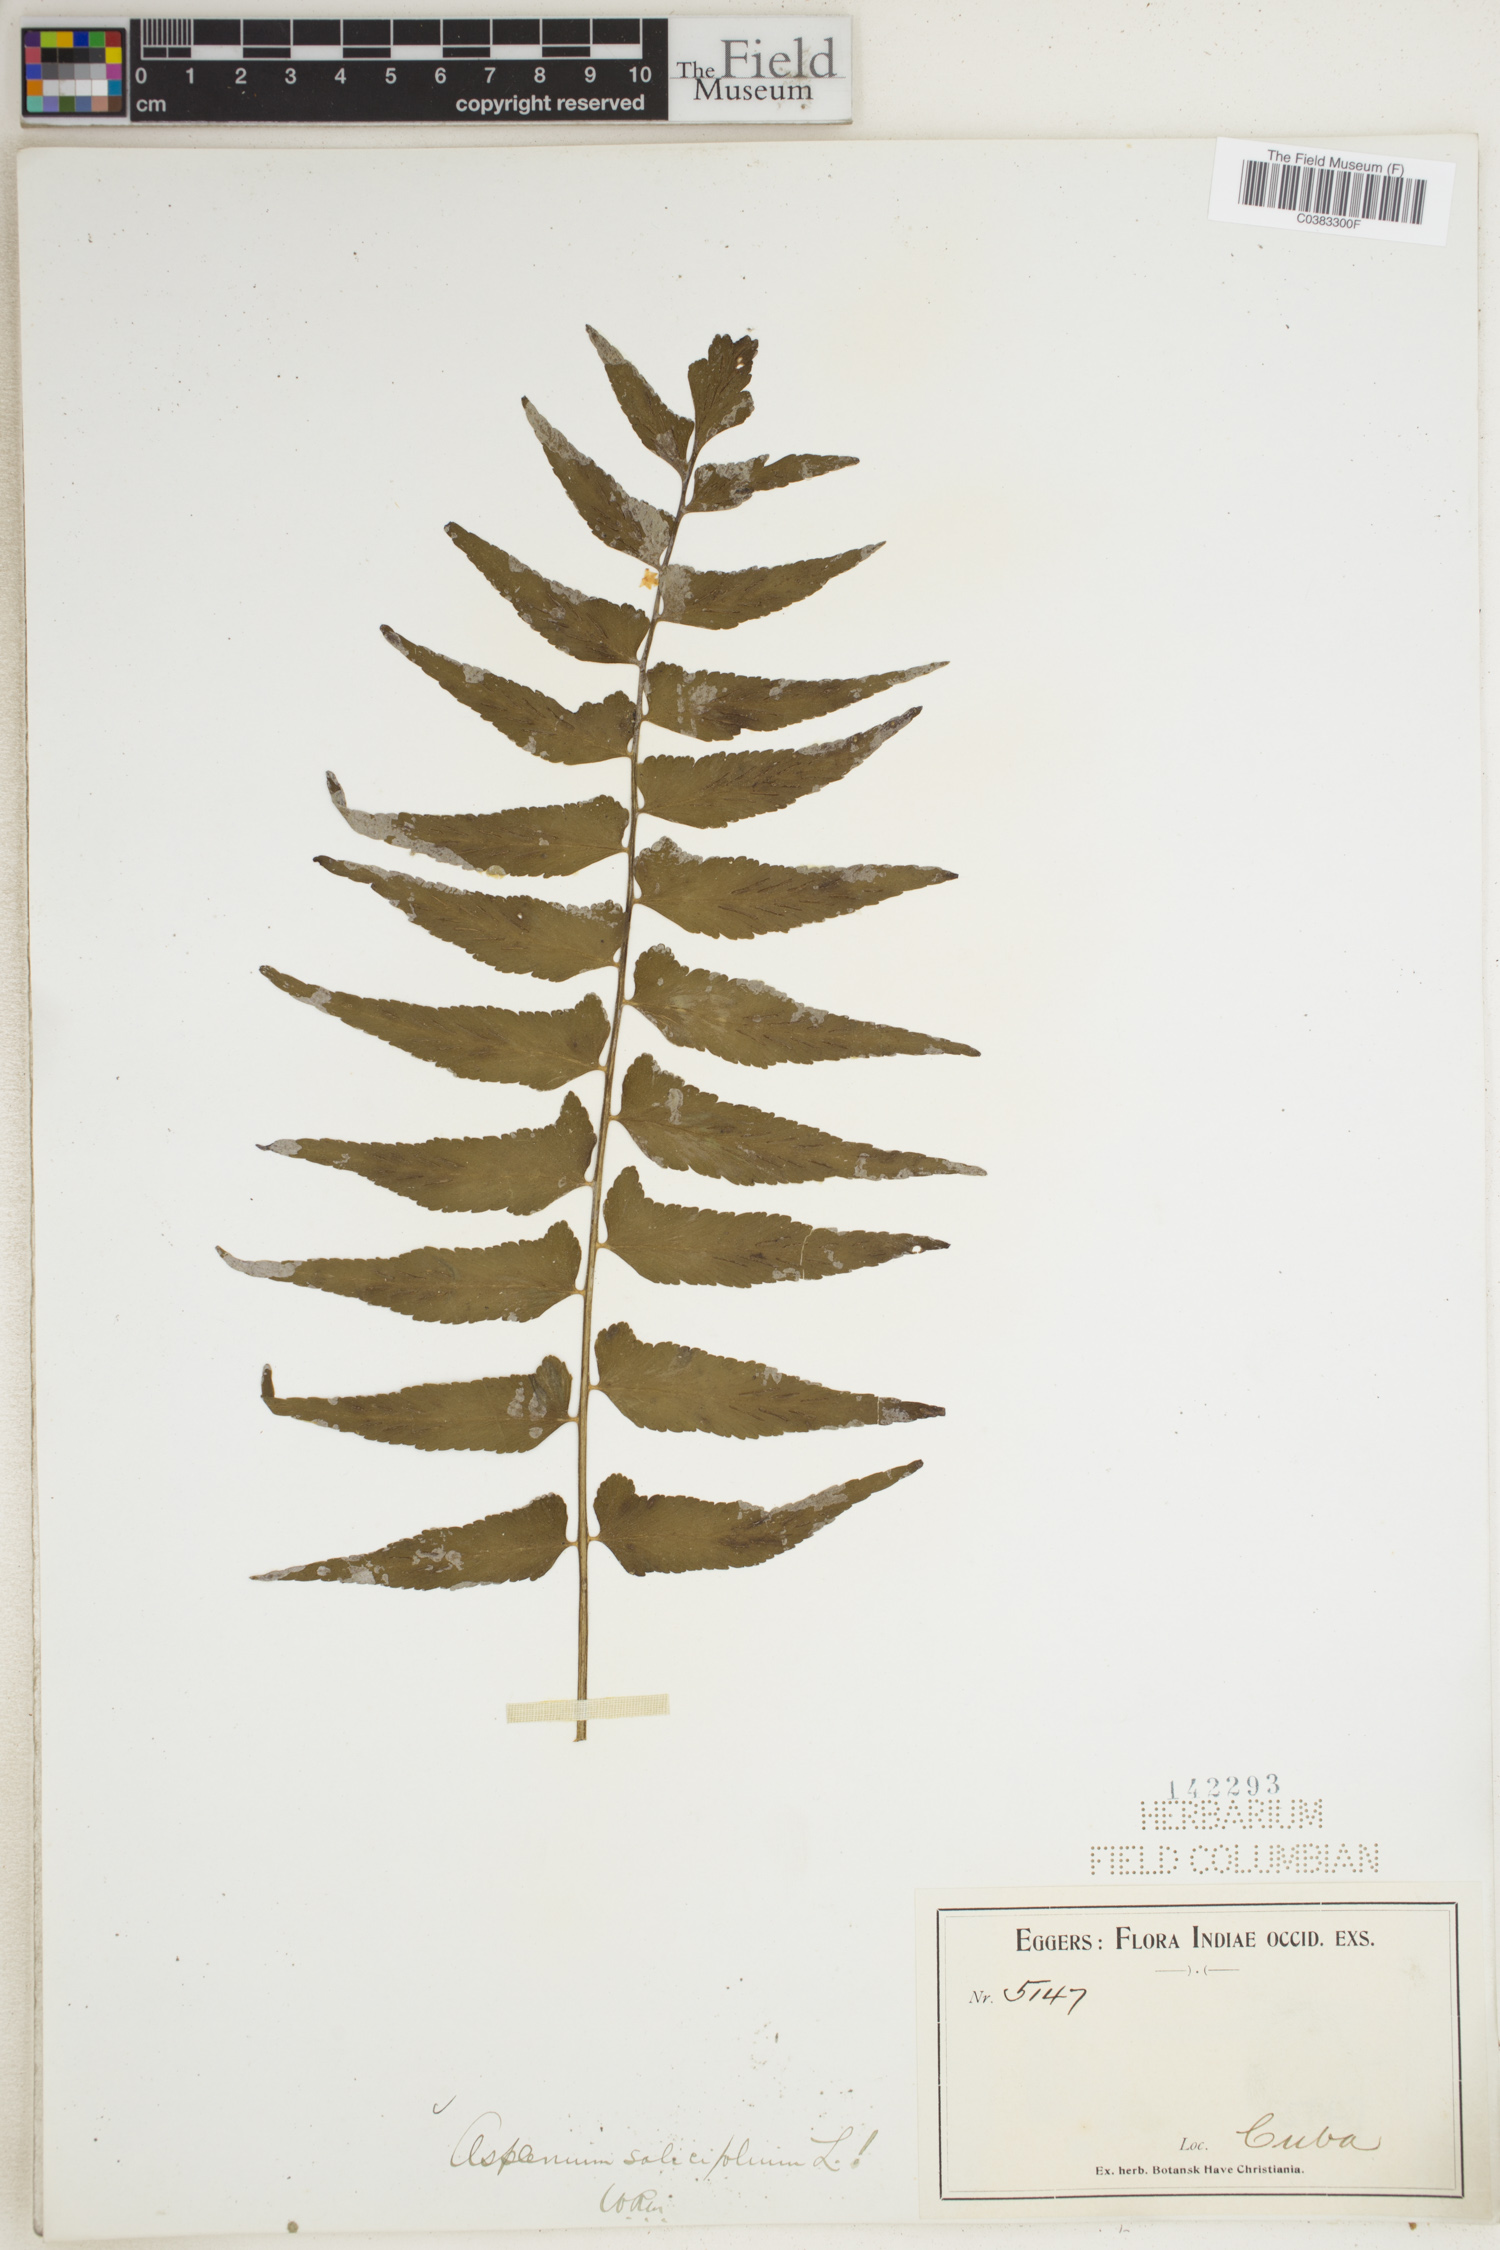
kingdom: Plantae
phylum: Tracheophyta
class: Polypodiopsida
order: Polypodiales
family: Aspleniaceae
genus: Asplenium
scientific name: Asplenium salicifolium
